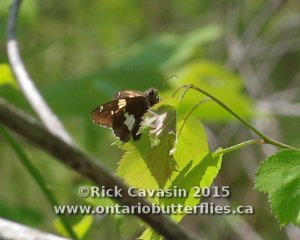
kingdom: Animalia
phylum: Arthropoda
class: Insecta
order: Lepidoptera
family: Hesperiidae
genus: Epargyreus
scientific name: Epargyreus clarus
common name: Silver-spotted Skipper
